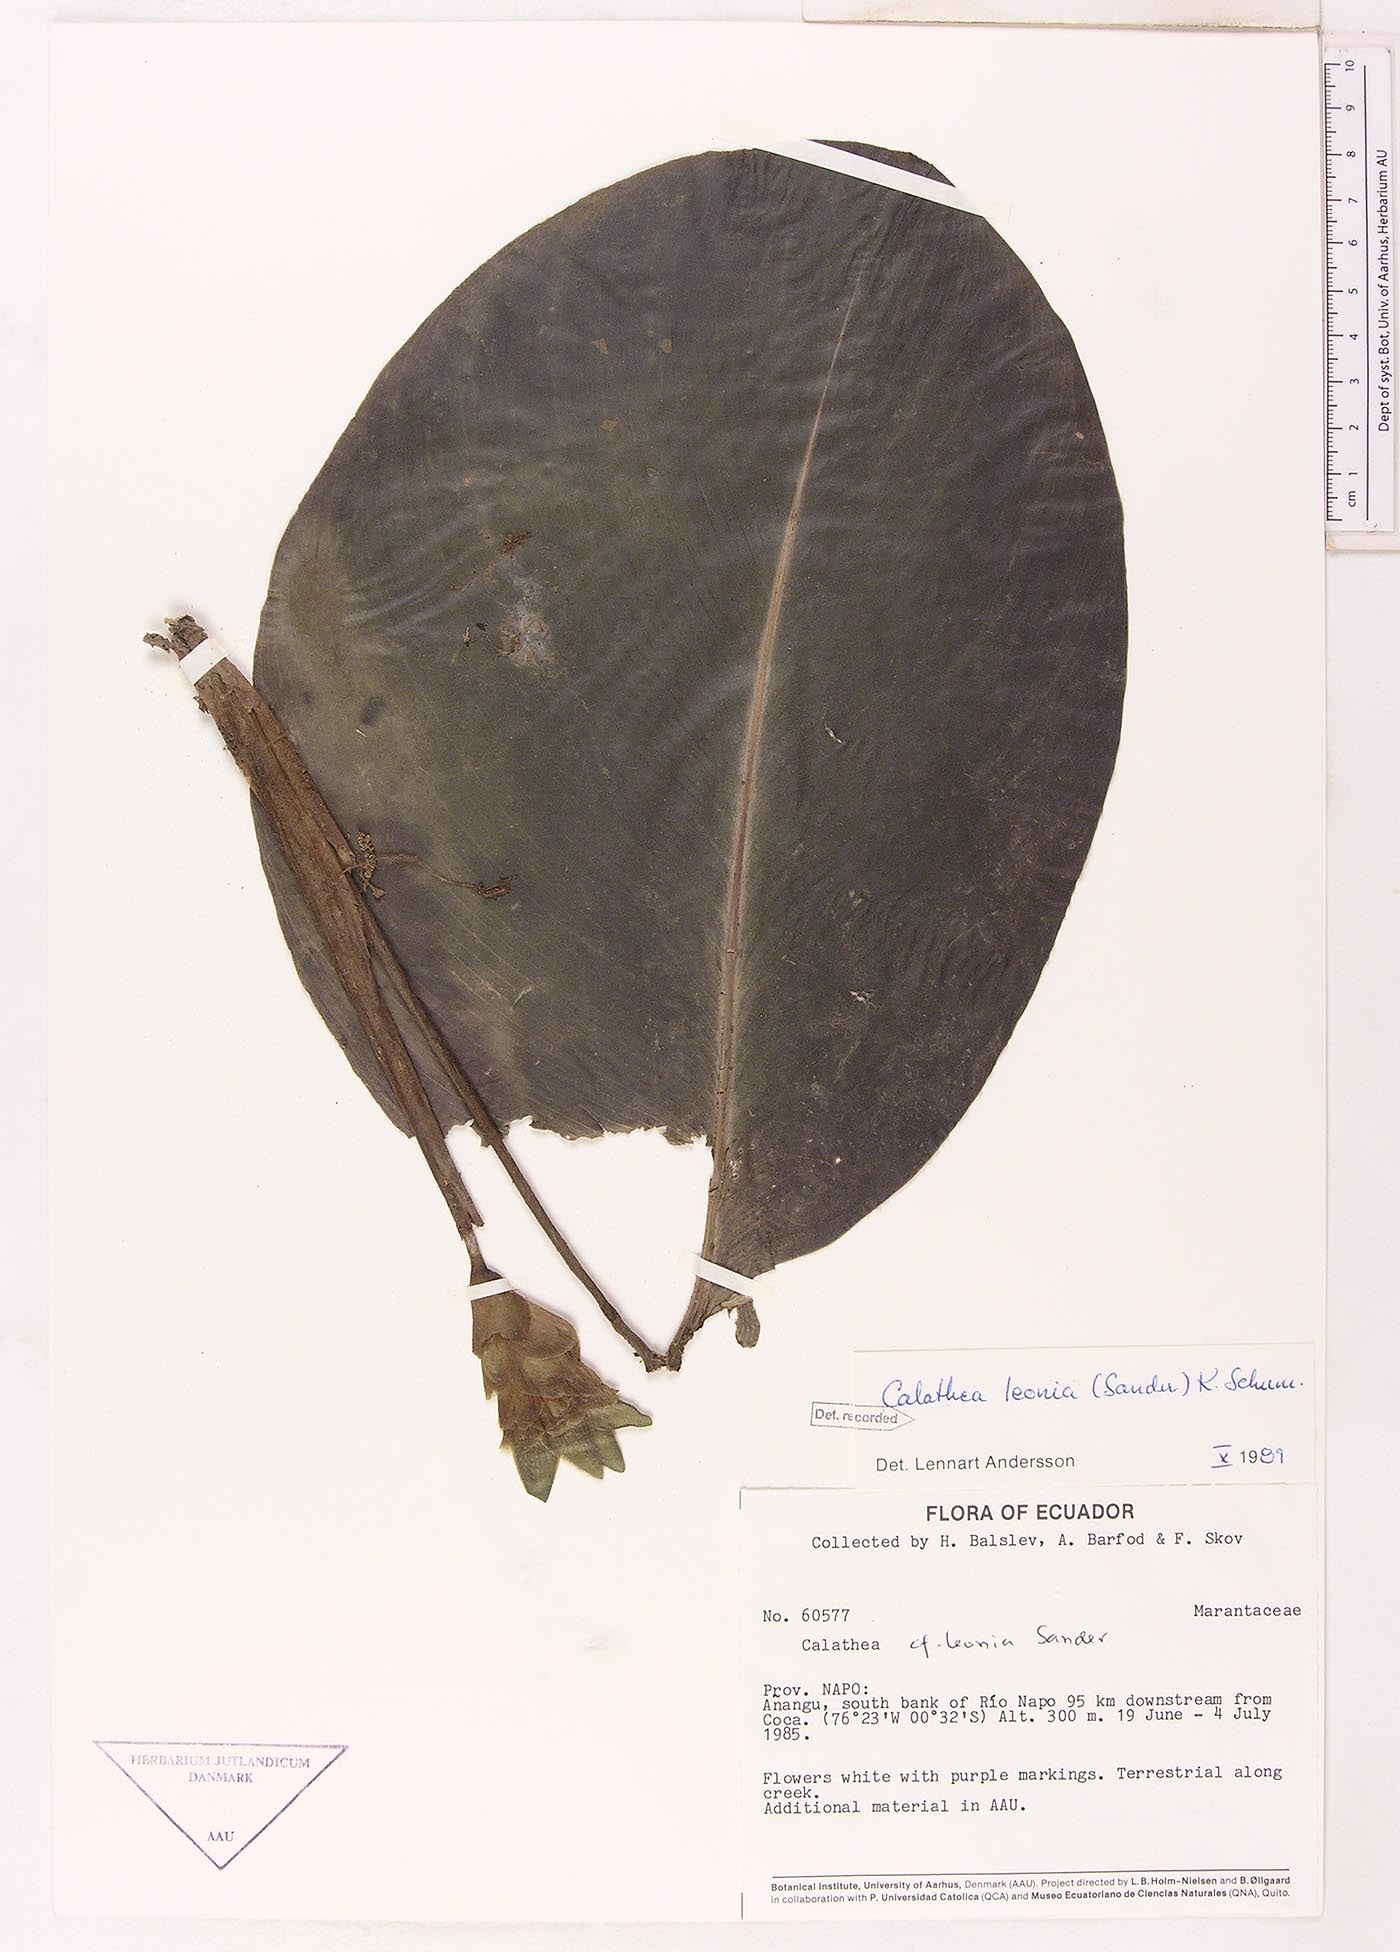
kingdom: Plantae
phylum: Tracheophyta
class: Liliopsida
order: Zingiberales
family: Marantaceae
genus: Goeppertia
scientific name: Goeppertia leonia
